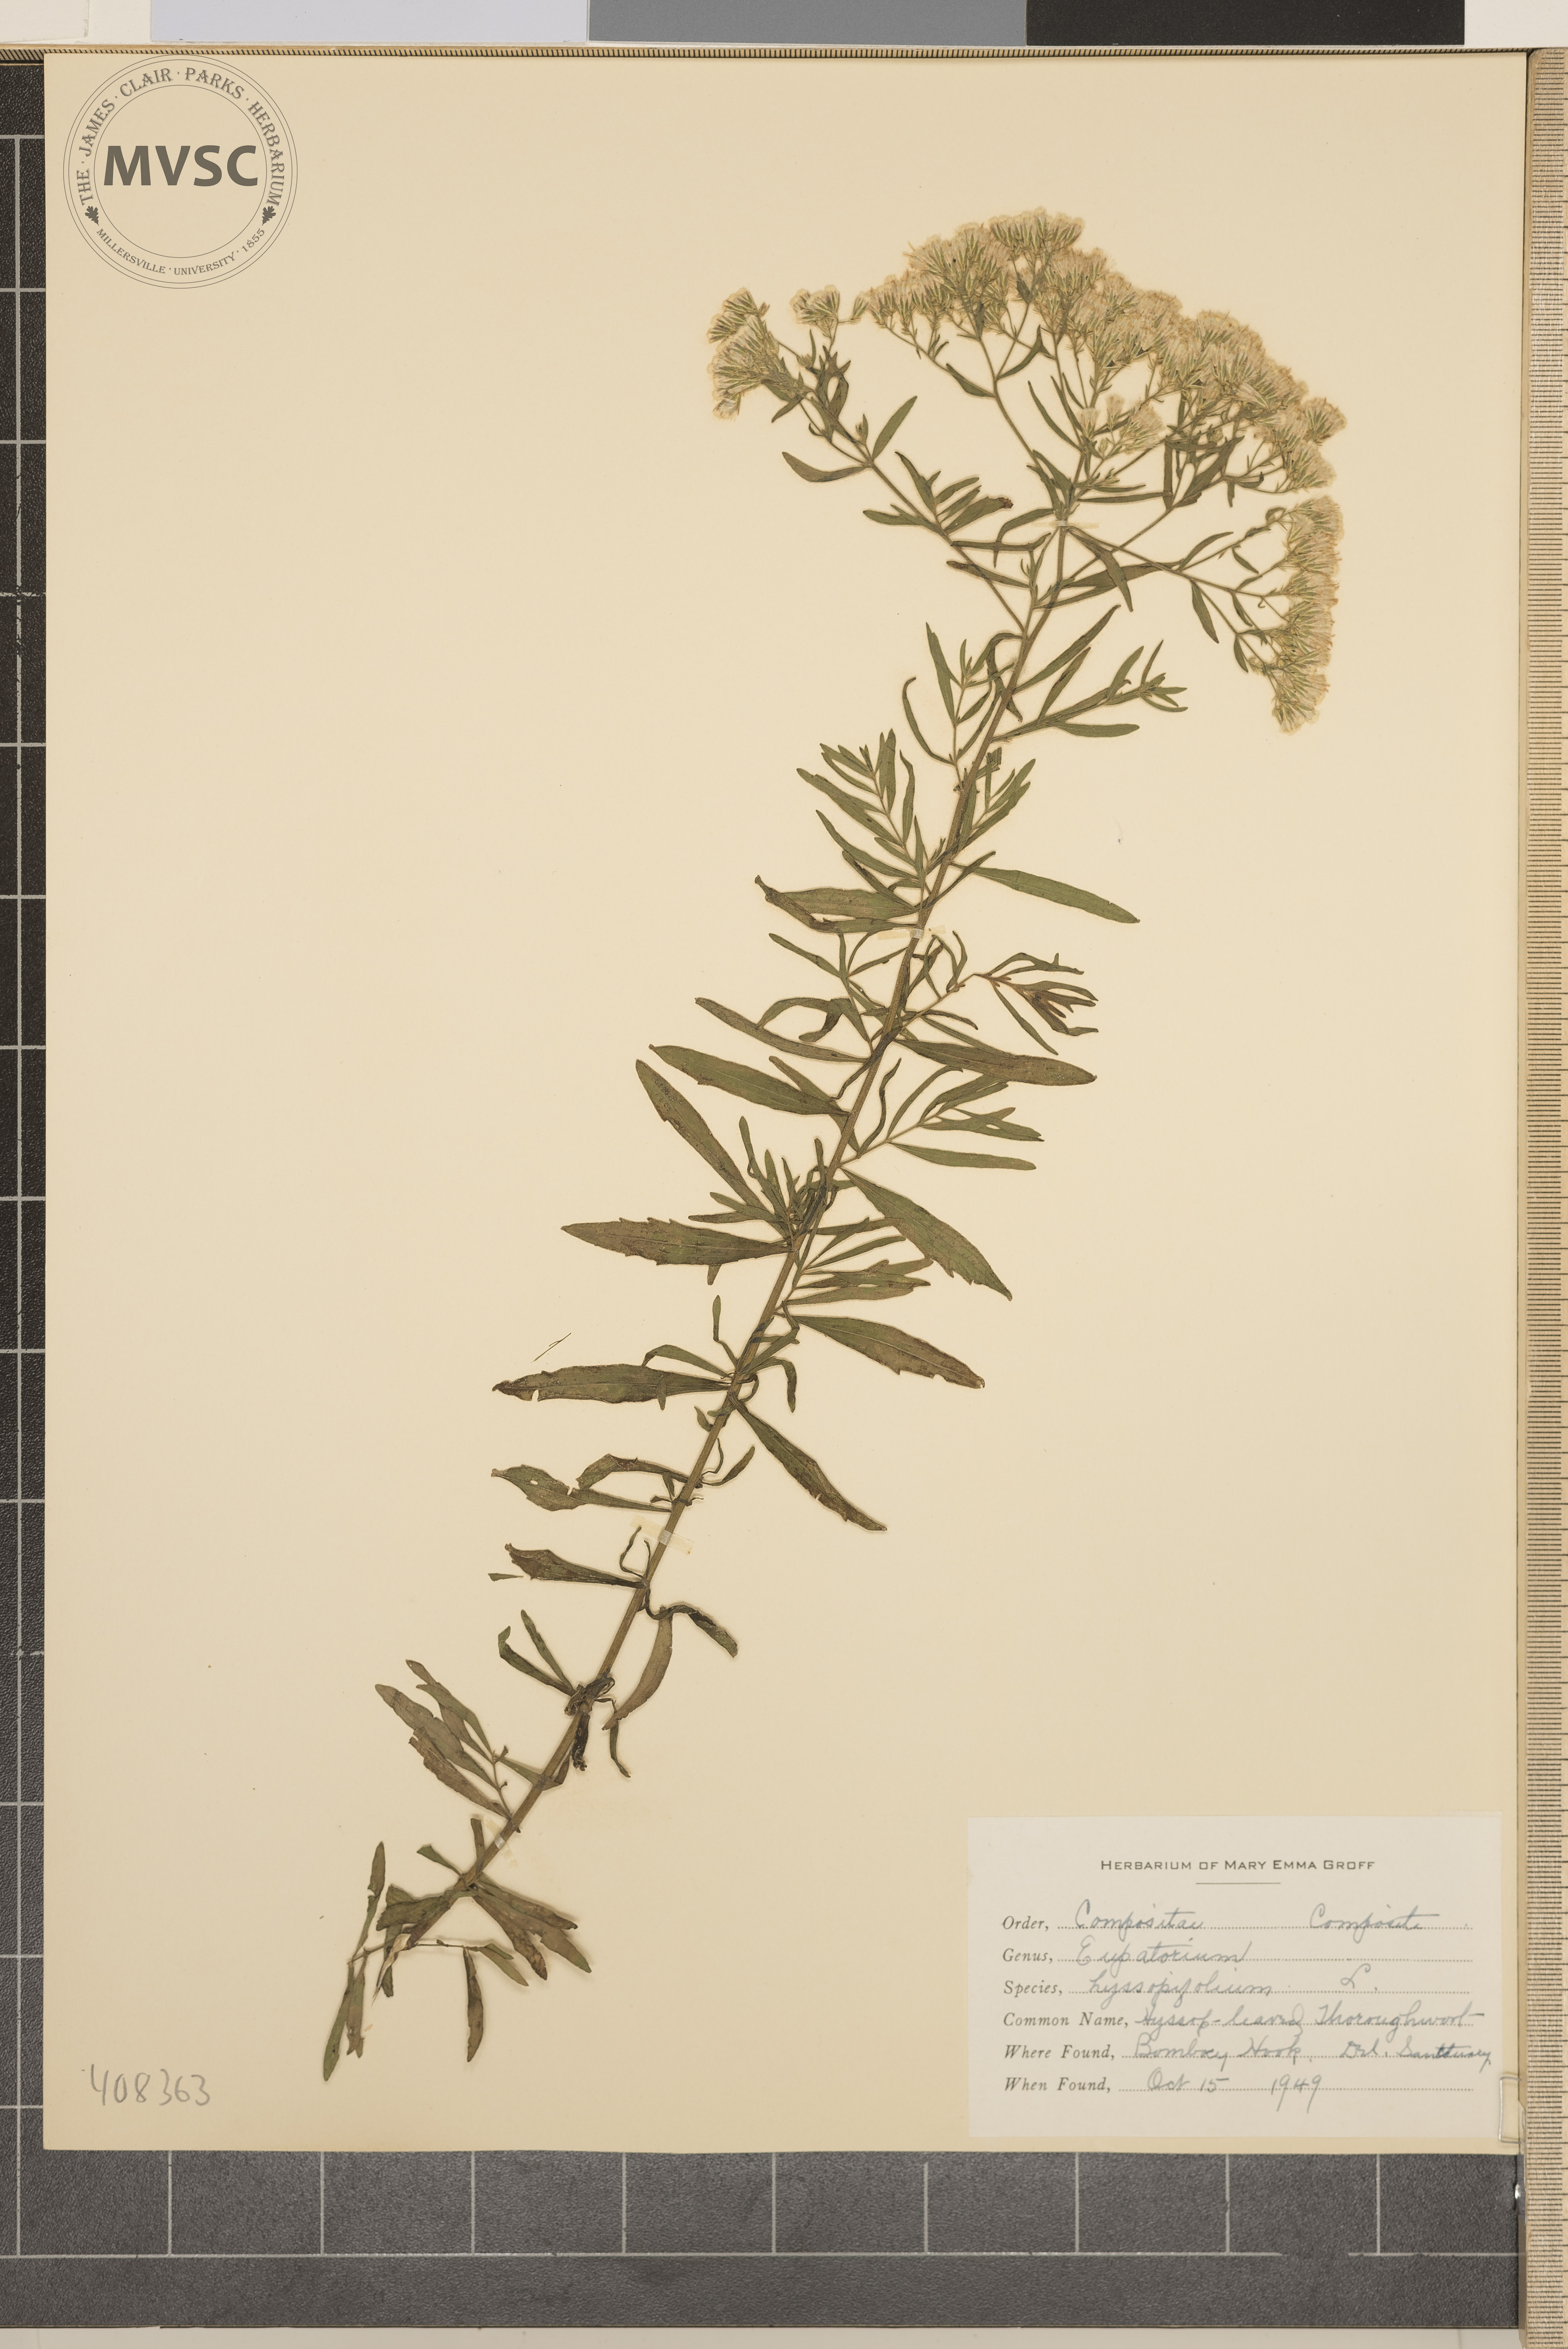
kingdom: Plantae
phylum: Tracheophyta
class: Magnoliopsida
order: Asterales
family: Asteraceae
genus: Eupatorium
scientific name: Eupatorium hyssopifolium
